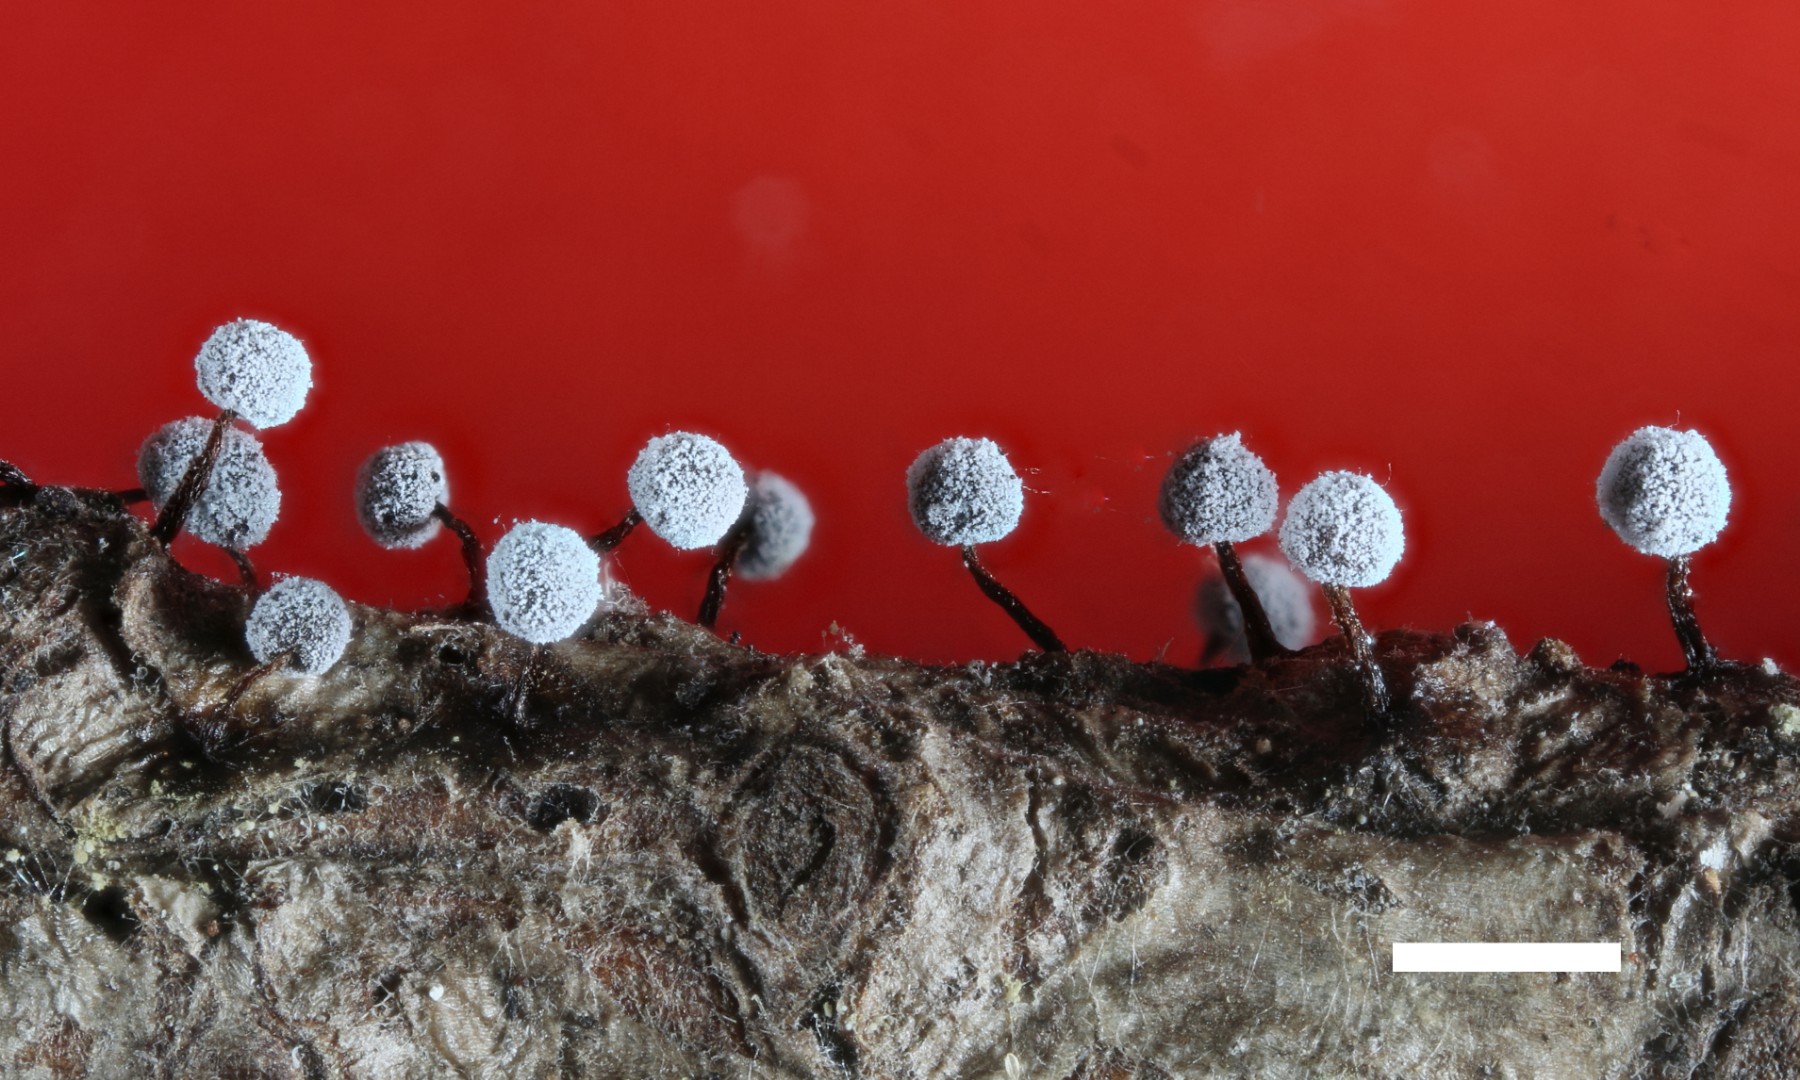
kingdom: Protozoa
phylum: Mycetozoa
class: Myxomycetes
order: Physarales
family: Didymiaceae
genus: Didymium
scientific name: Didymium nigripes
